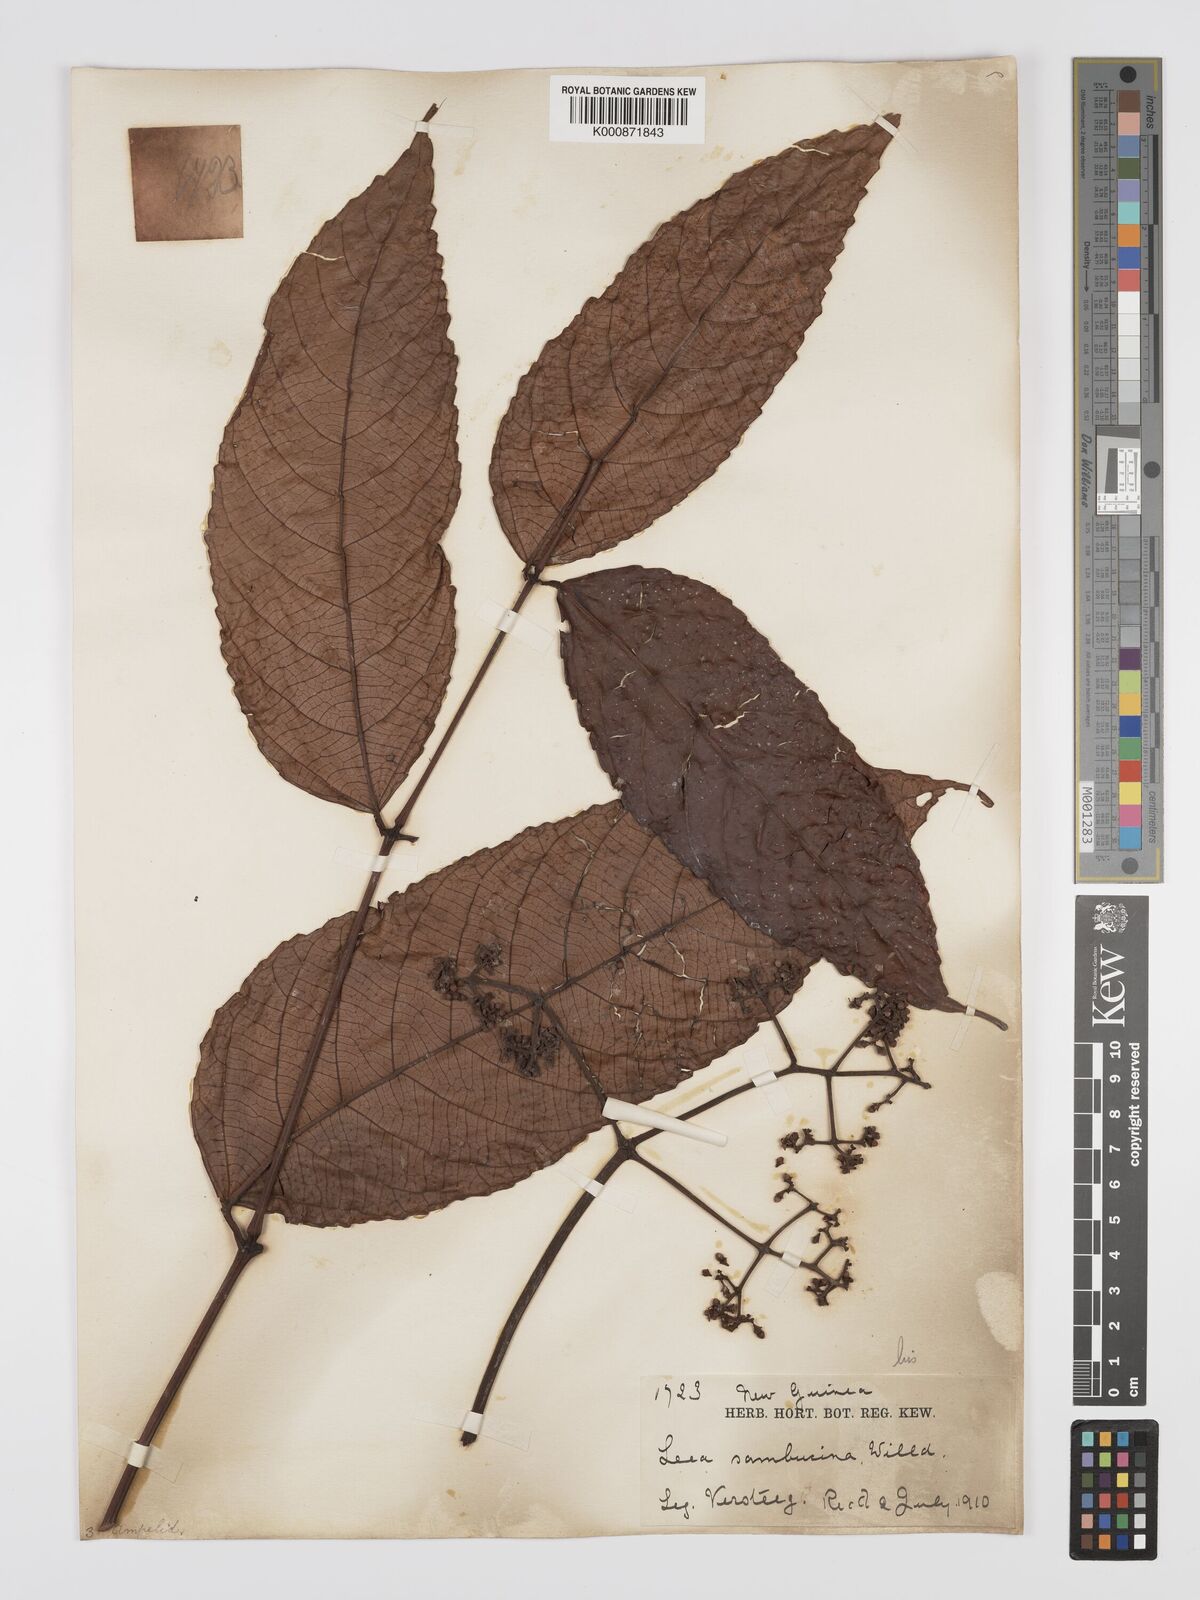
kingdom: Plantae
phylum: Tracheophyta
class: Magnoliopsida
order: Vitales
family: Vitaceae
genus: Leea
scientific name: Leea indica
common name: Bandicoot-berry
